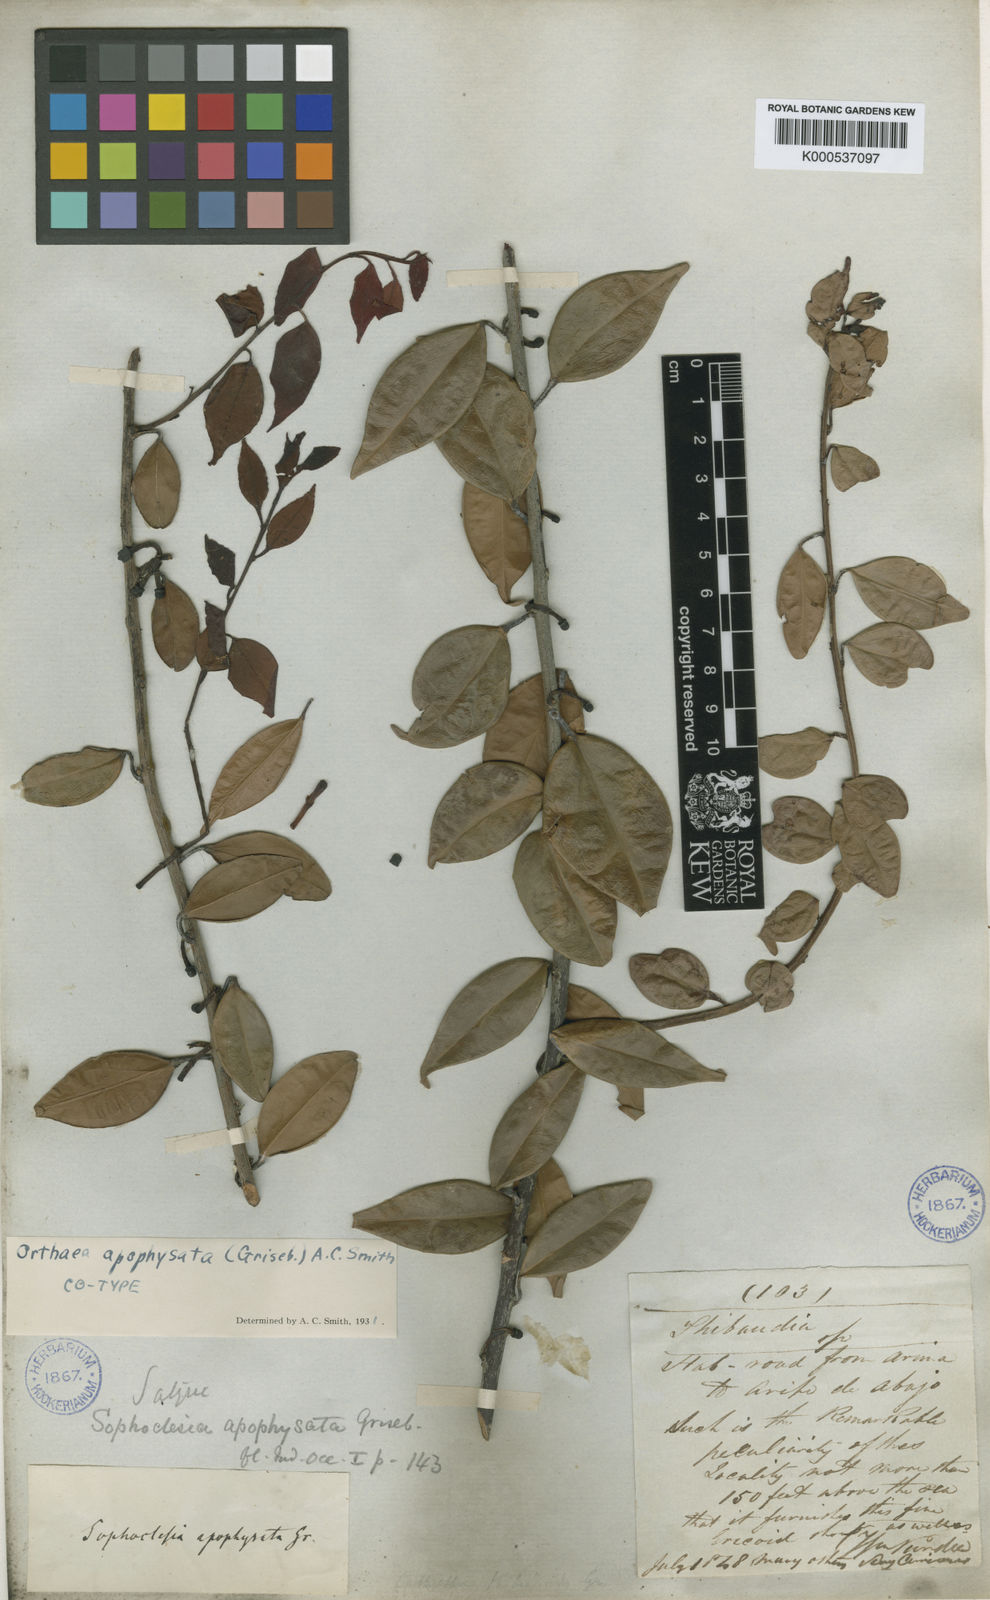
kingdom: Plantae
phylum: Tracheophyta
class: Magnoliopsida
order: Ericales
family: Ericaceae
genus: Orthaea
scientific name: Orthaea apophysata
